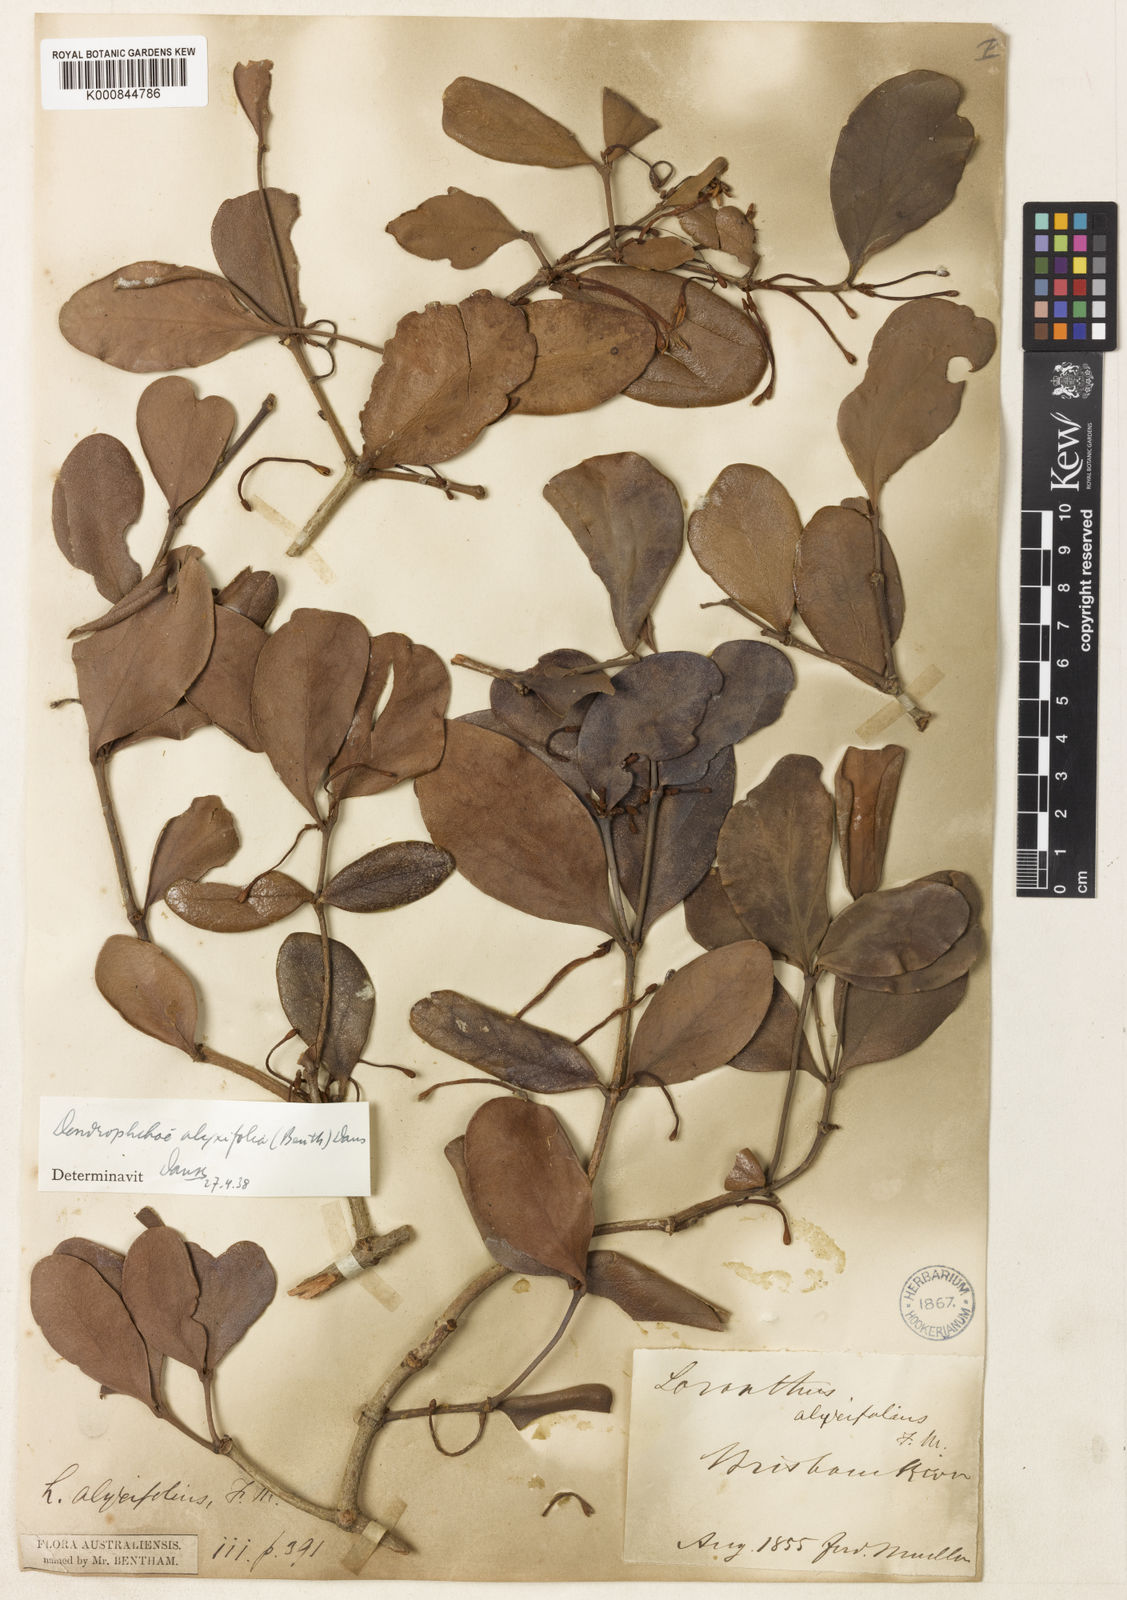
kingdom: Plantae
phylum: Tracheophyta
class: Magnoliopsida
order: Santalales
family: Loranthaceae
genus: Benthamina
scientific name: Benthamina alyxifolia
